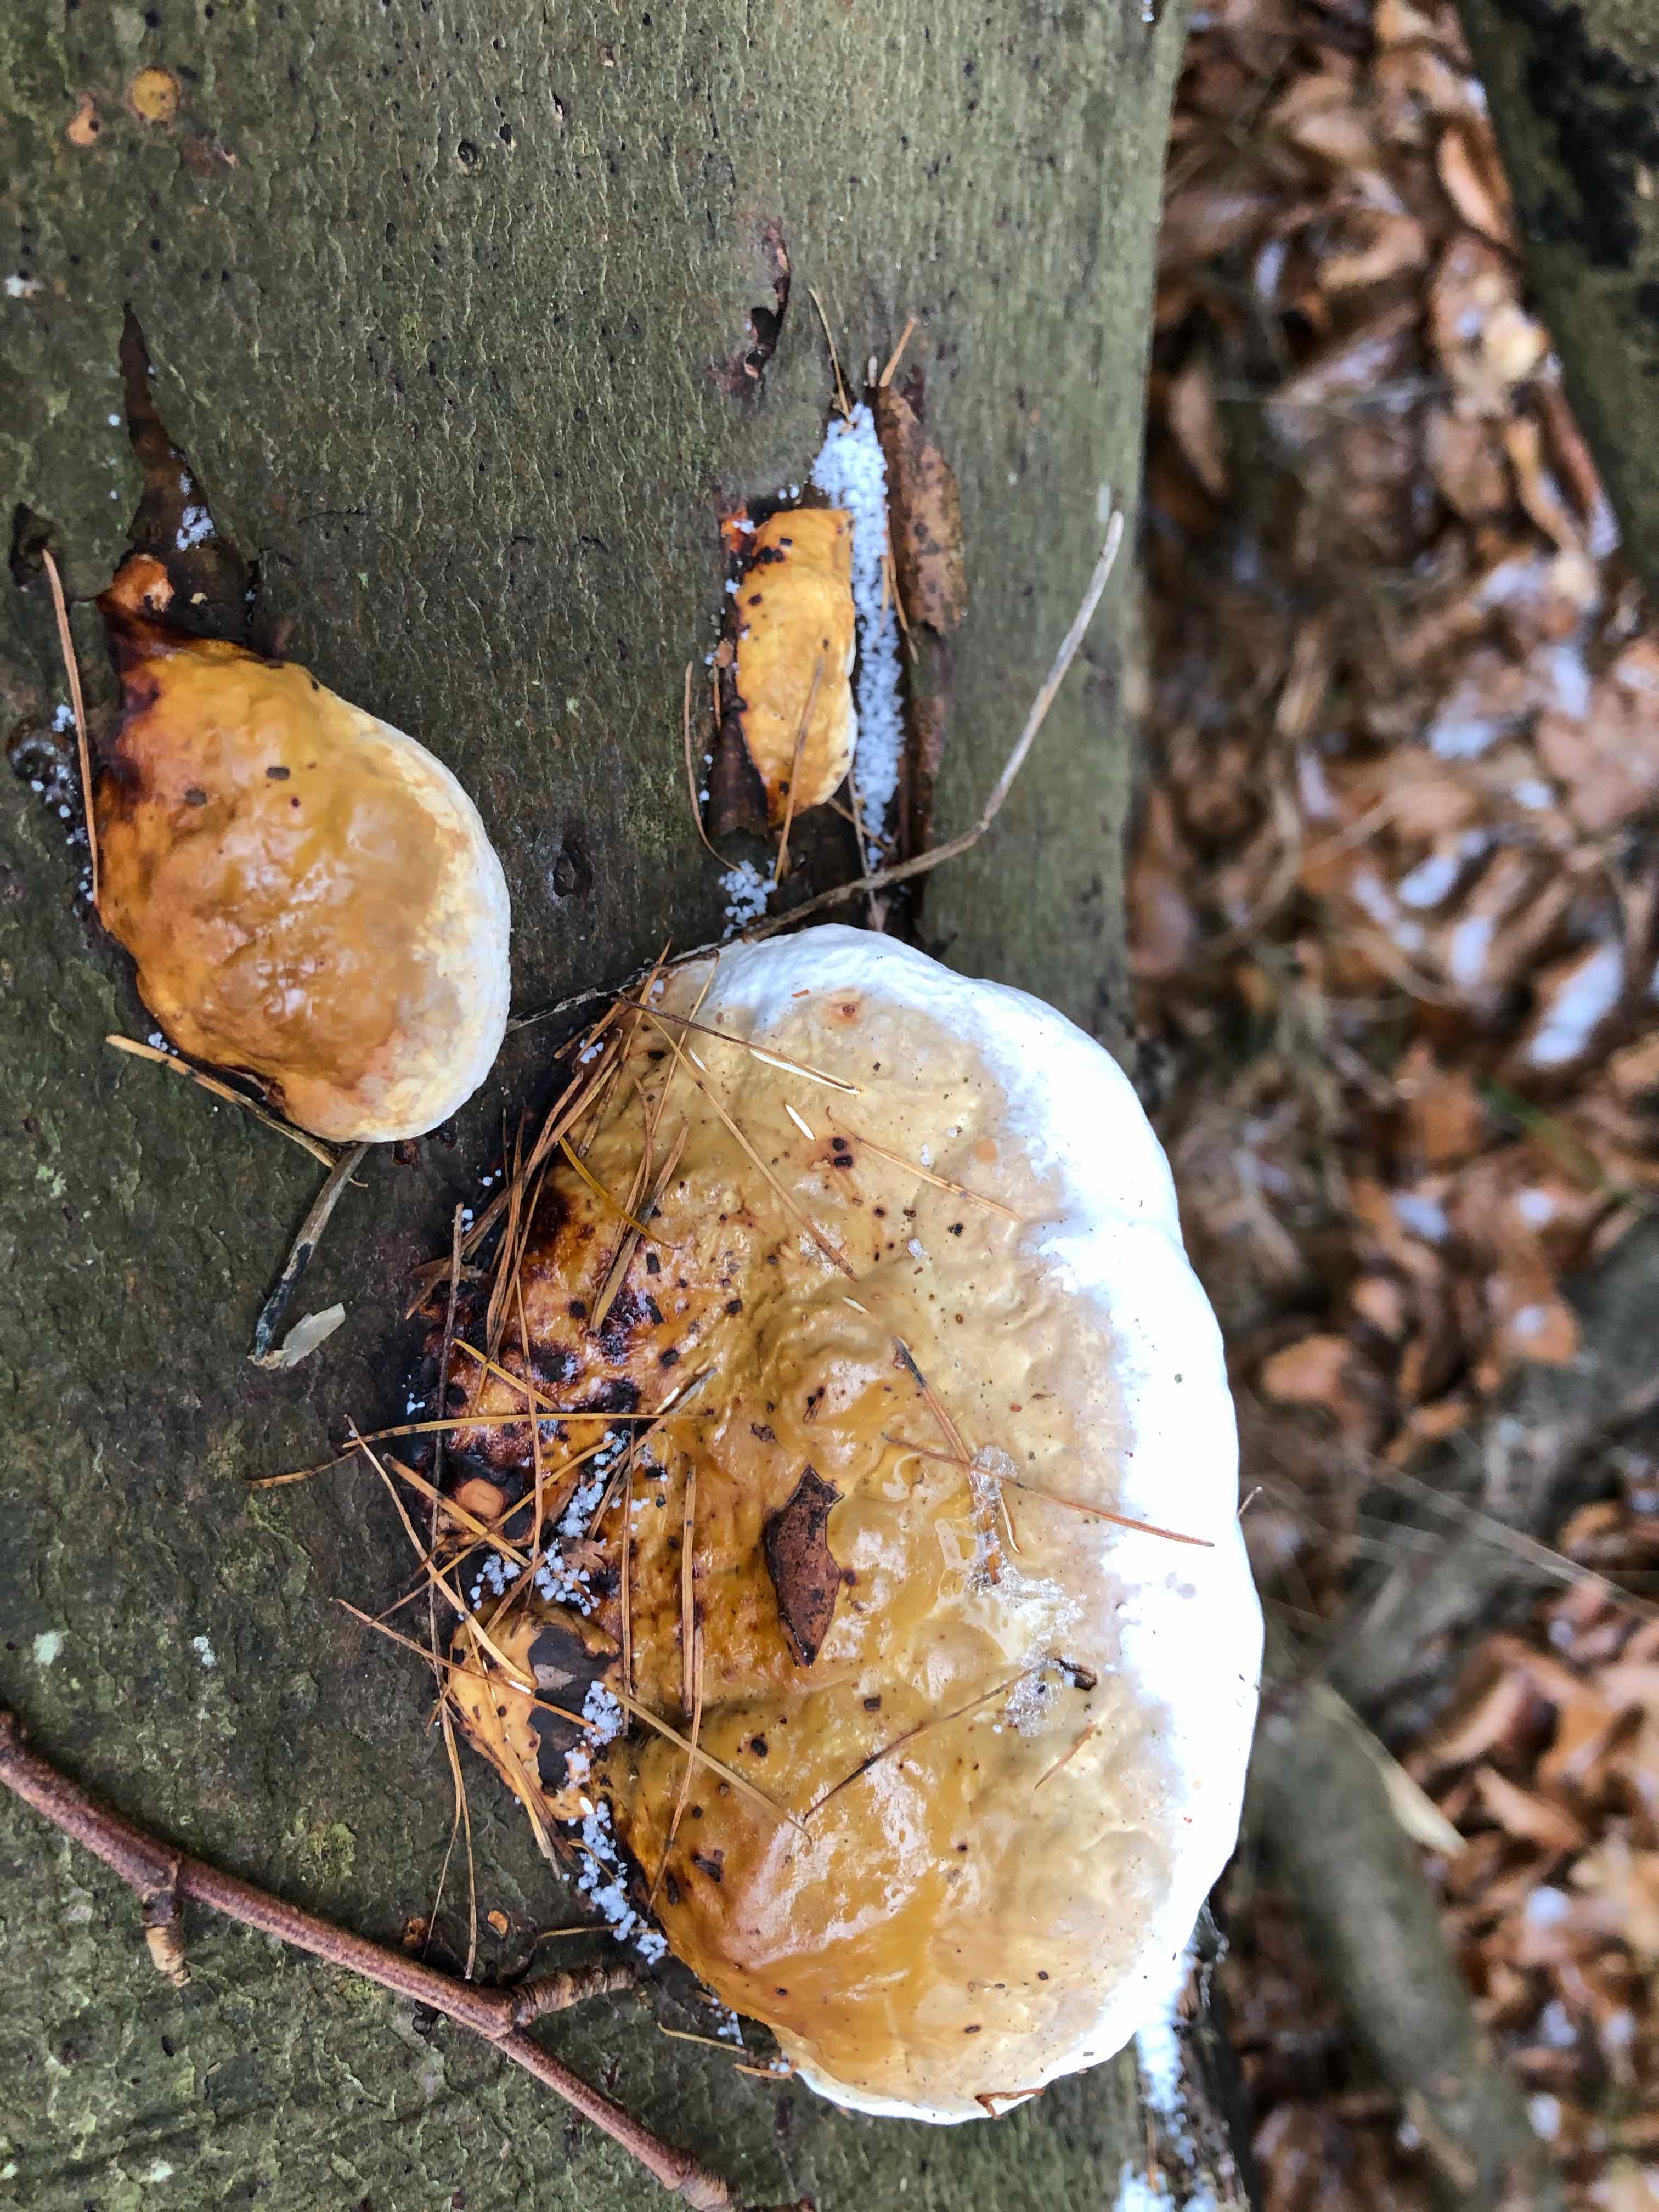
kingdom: Fungi
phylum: Basidiomycota
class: Agaricomycetes
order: Polyporales
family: Fomitopsidaceae
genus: Fomitopsis
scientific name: Fomitopsis pinicola
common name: randbæltet hovporesvamp
